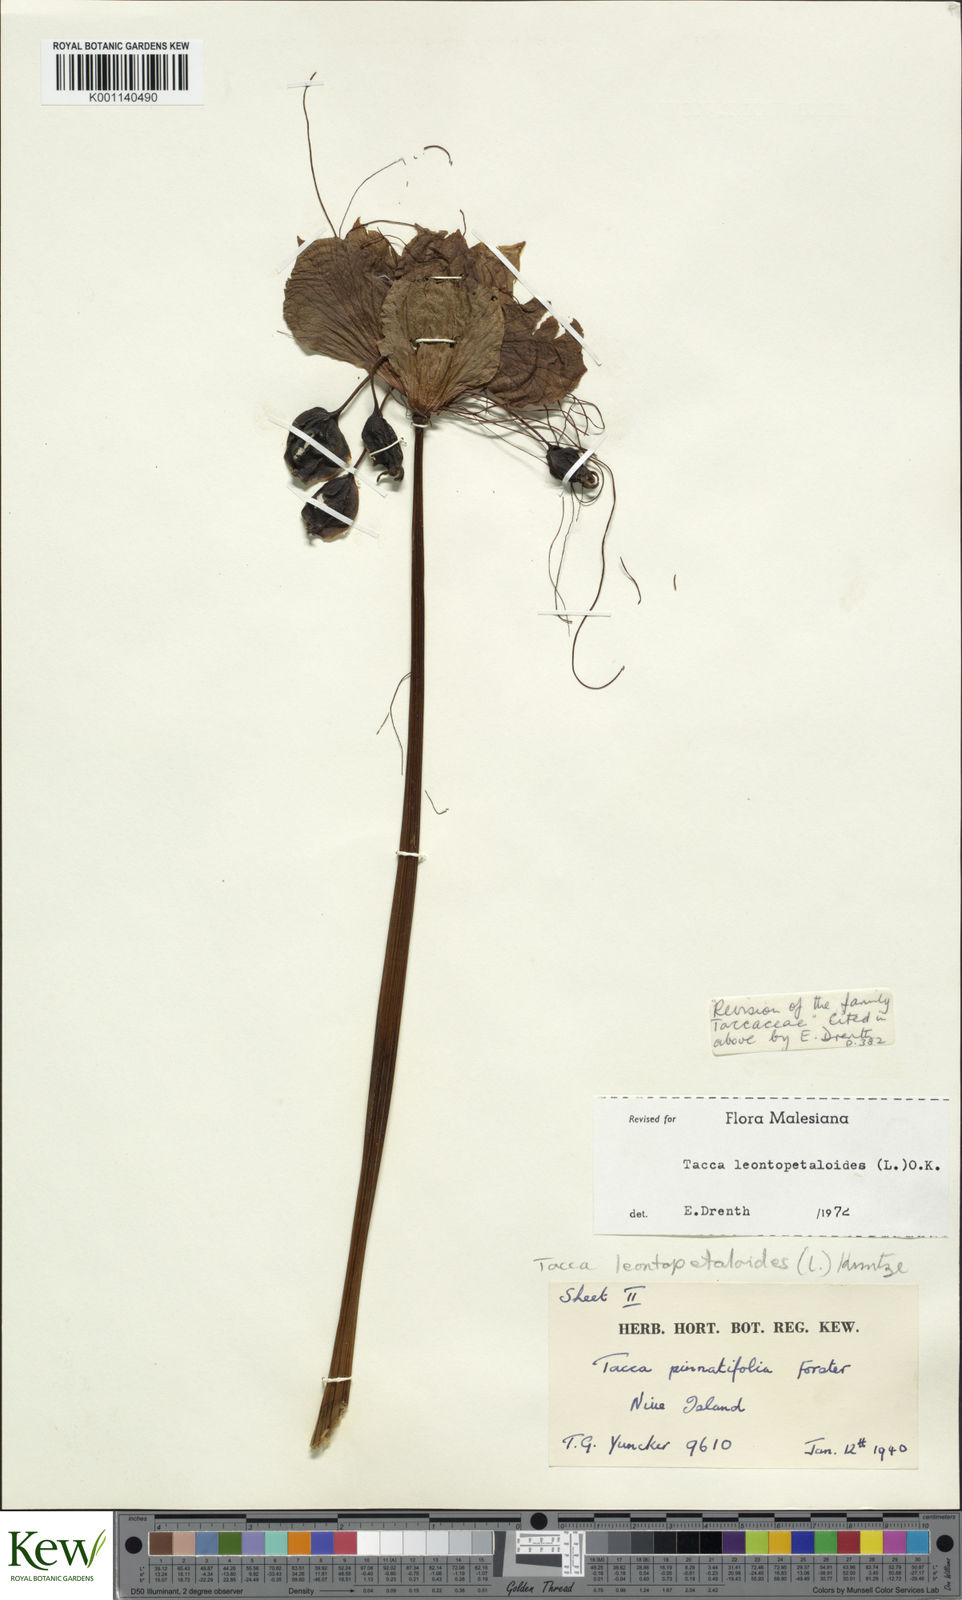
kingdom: Plantae
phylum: Tracheophyta
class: Liliopsida
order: Dioscoreales
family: Dioscoreaceae
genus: Tacca
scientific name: Tacca leontopetaloides
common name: Arrowroot
